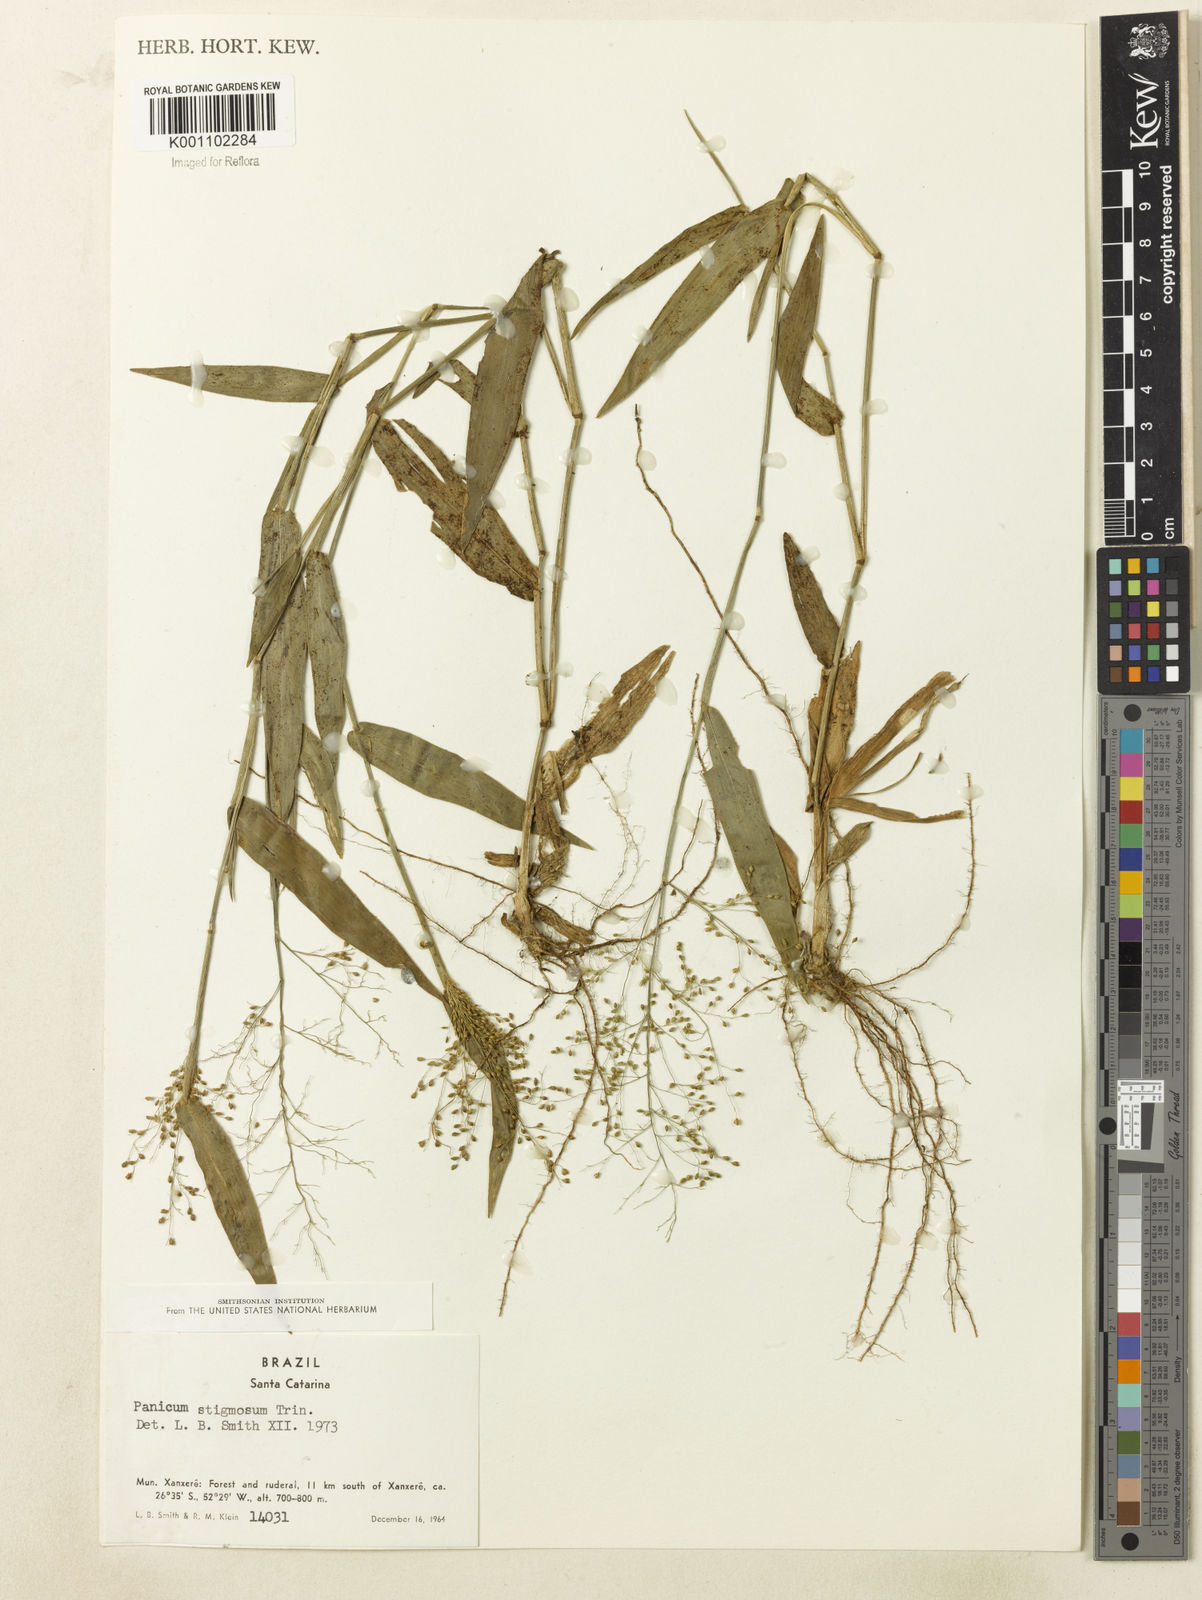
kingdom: Plantae
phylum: Tracheophyta
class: Liliopsida
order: Poales
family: Poaceae
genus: Dichanthelium
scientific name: Dichanthelium stigmosum
